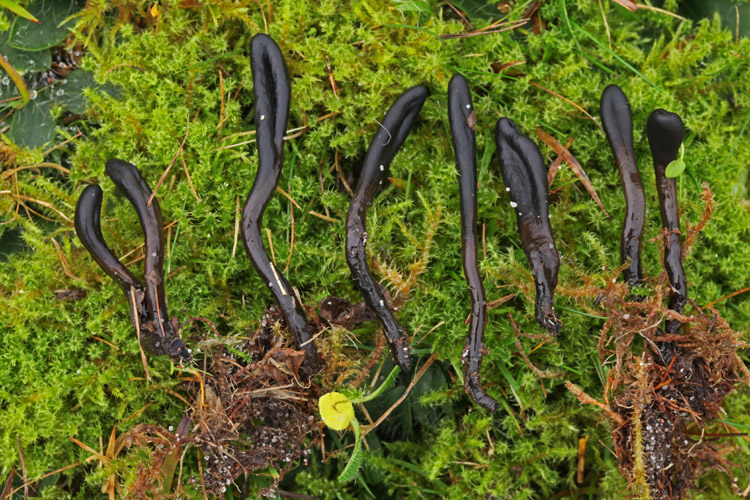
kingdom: Fungi
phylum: Ascomycota
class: Geoglossomycetes
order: Geoglossales
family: Geoglossaceae
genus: Glutinoglossum
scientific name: Glutinoglossum glutinosum
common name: slimet jordtunge
